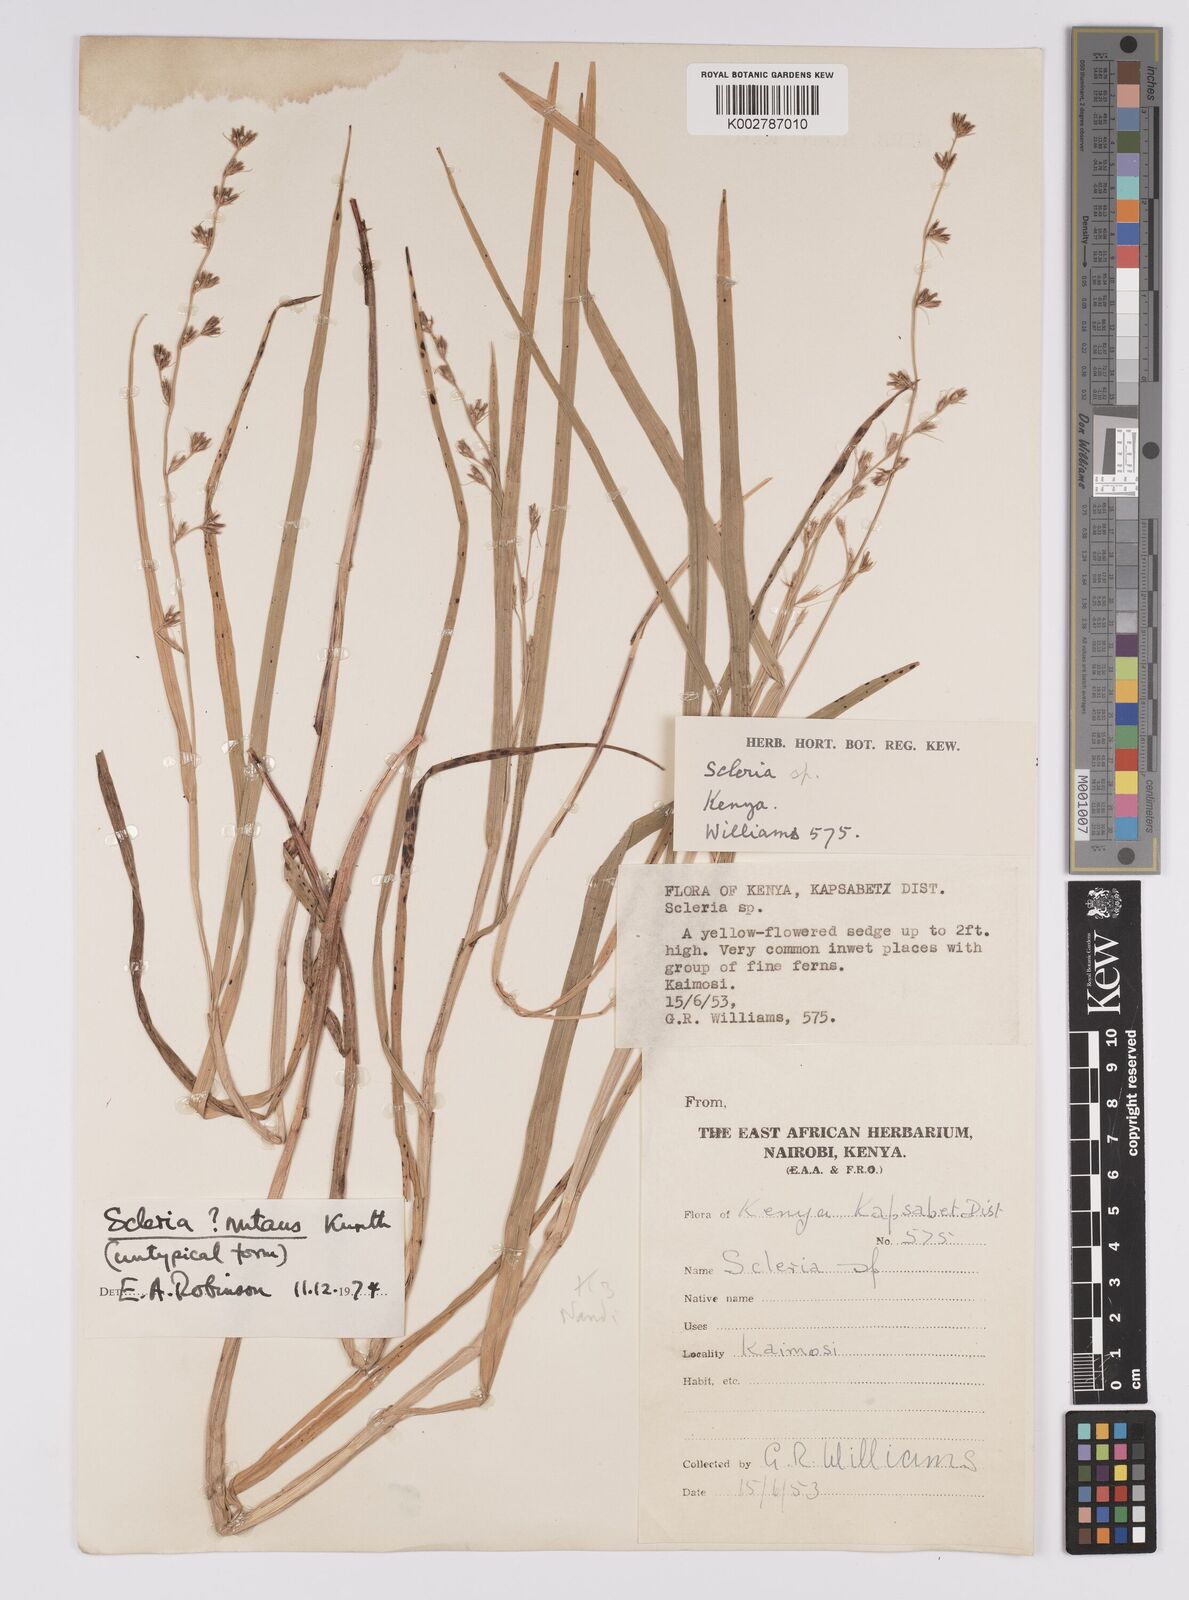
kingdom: Plantae
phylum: Tracheophyta
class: Liliopsida
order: Poales
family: Cyperaceae
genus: Scleria
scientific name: Scleria
